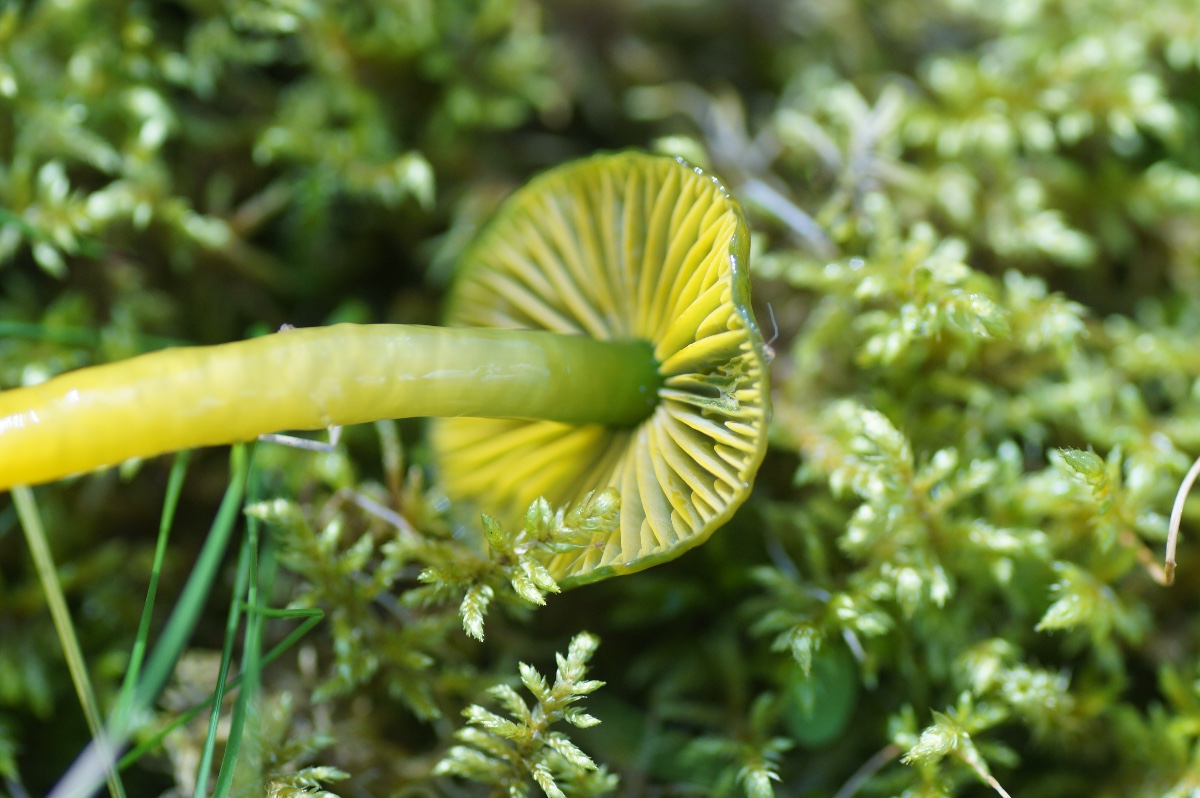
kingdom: Fungi
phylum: Basidiomycota
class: Agaricomycetes
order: Agaricales
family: Hygrophoraceae
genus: Gliophorus
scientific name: Gliophorus psittacinus
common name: papegøje-vokshat
